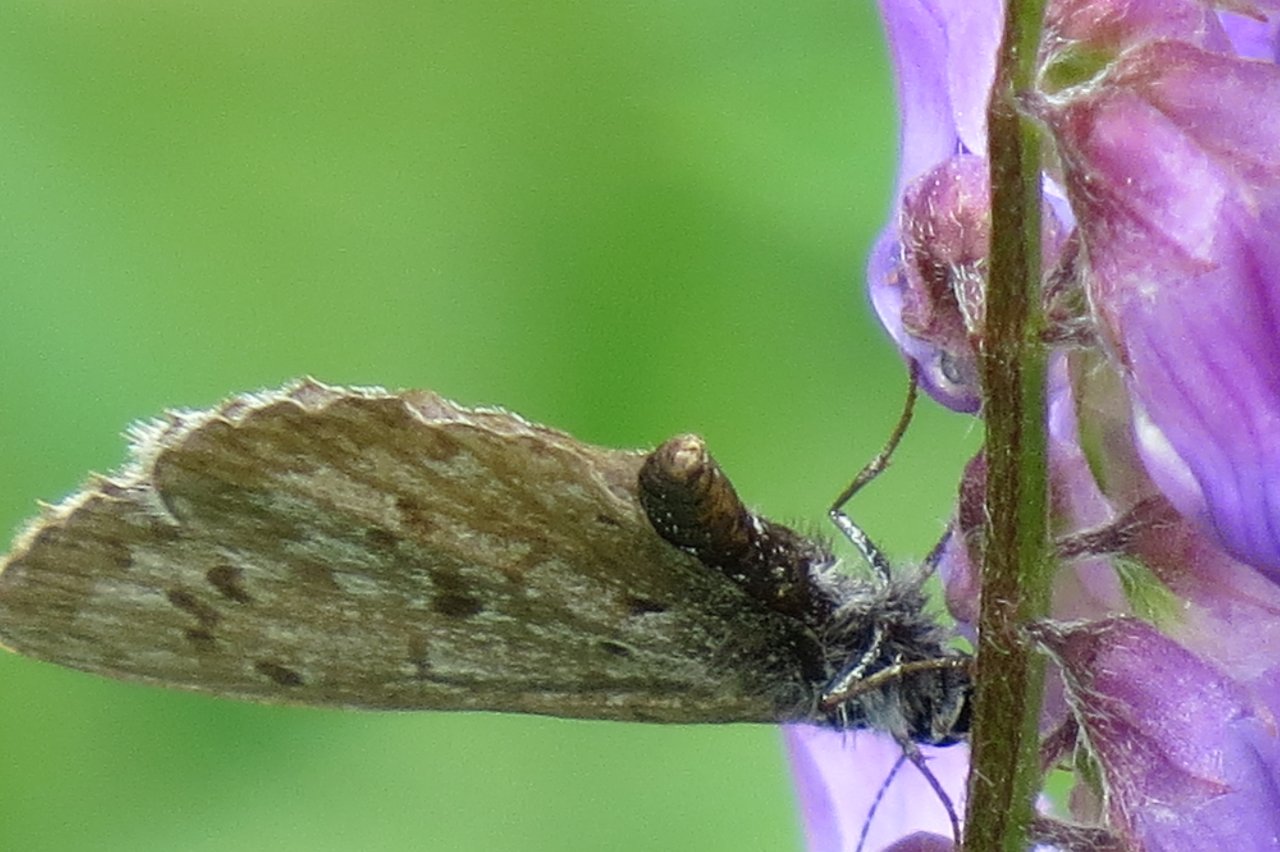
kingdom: Animalia
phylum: Arthropoda
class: Insecta
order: Lepidoptera
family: Lycaenidae
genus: Celastrina
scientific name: Celastrina lucia
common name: Northern Spring Azure
